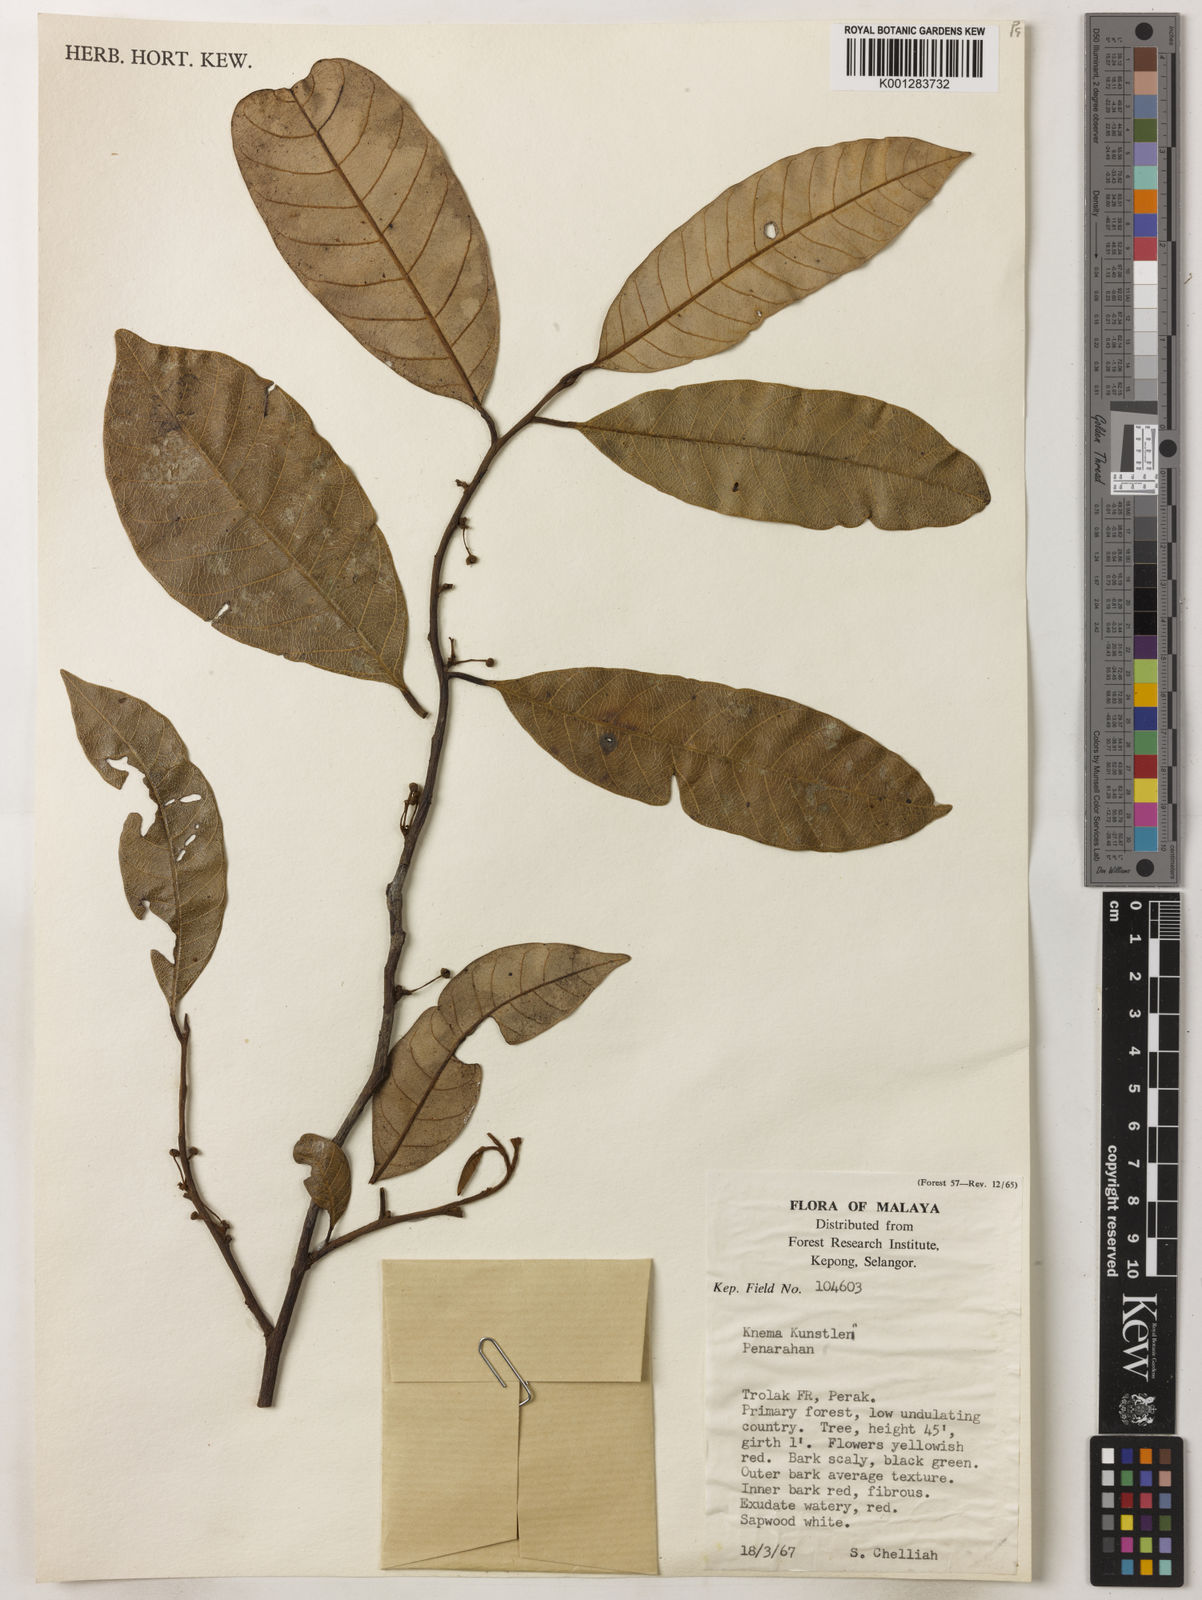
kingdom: Plantae
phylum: Tracheophyta
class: Magnoliopsida
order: Magnoliales
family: Myristicaceae
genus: Knema
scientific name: Knema kunstleri
